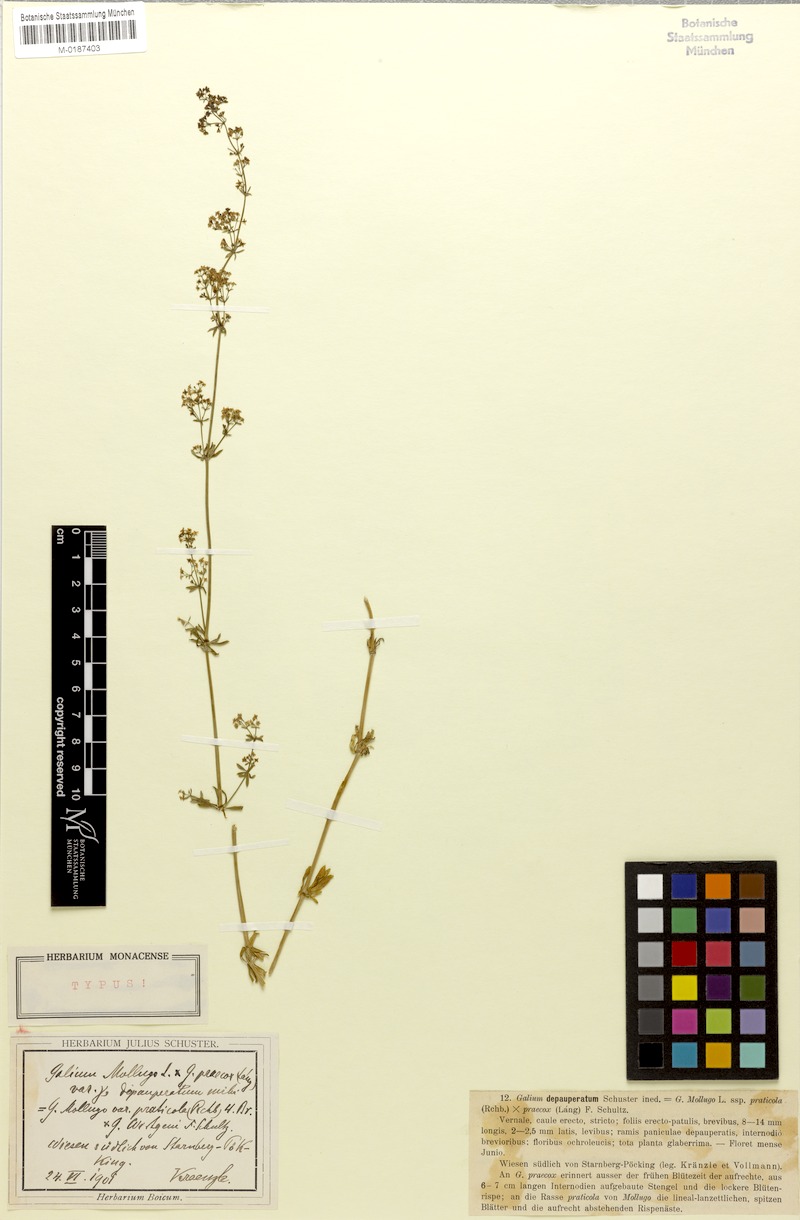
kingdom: Plantae
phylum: Tracheophyta
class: Magnoliopsida
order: Gentianales
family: Rubiaceae
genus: Galium
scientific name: Galium mutabile
